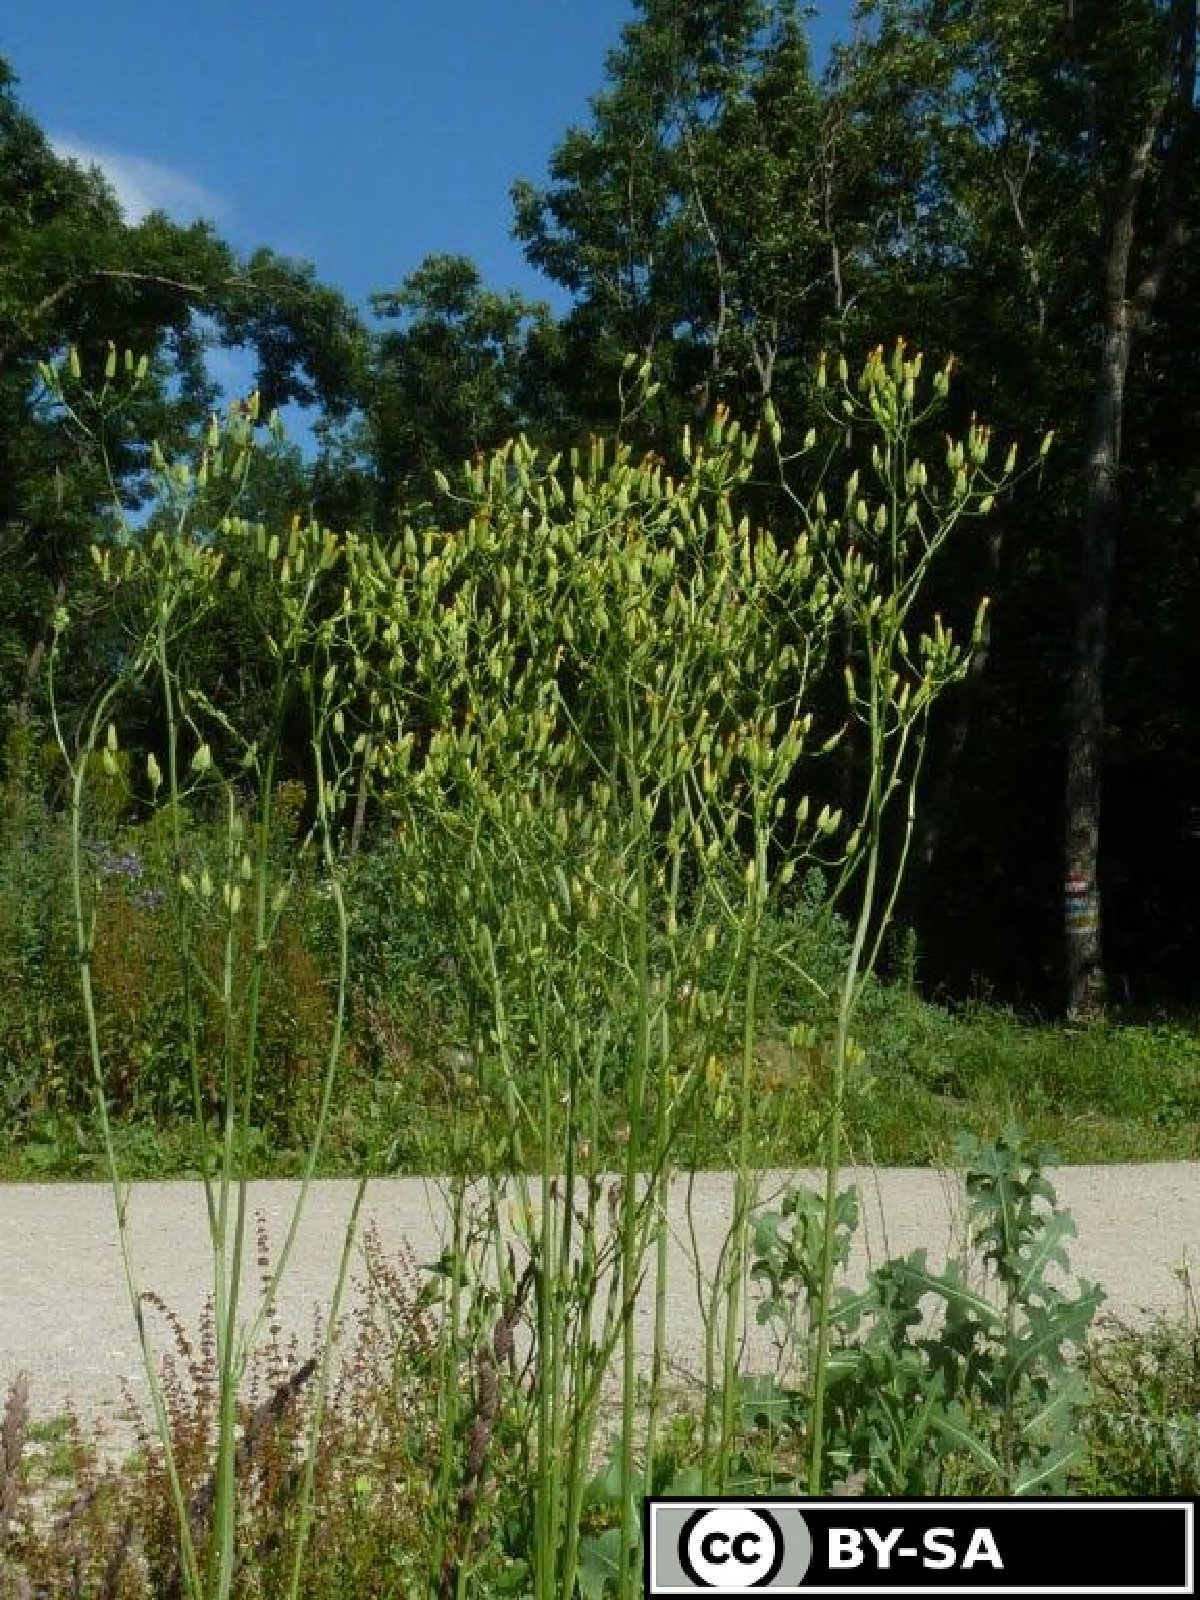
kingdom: Plantae
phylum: Tracheophyta
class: Magnoliopsida
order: Asterales
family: Asteraceae
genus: Crepis
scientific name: Crepis pulchra
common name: Hawk's-beard
